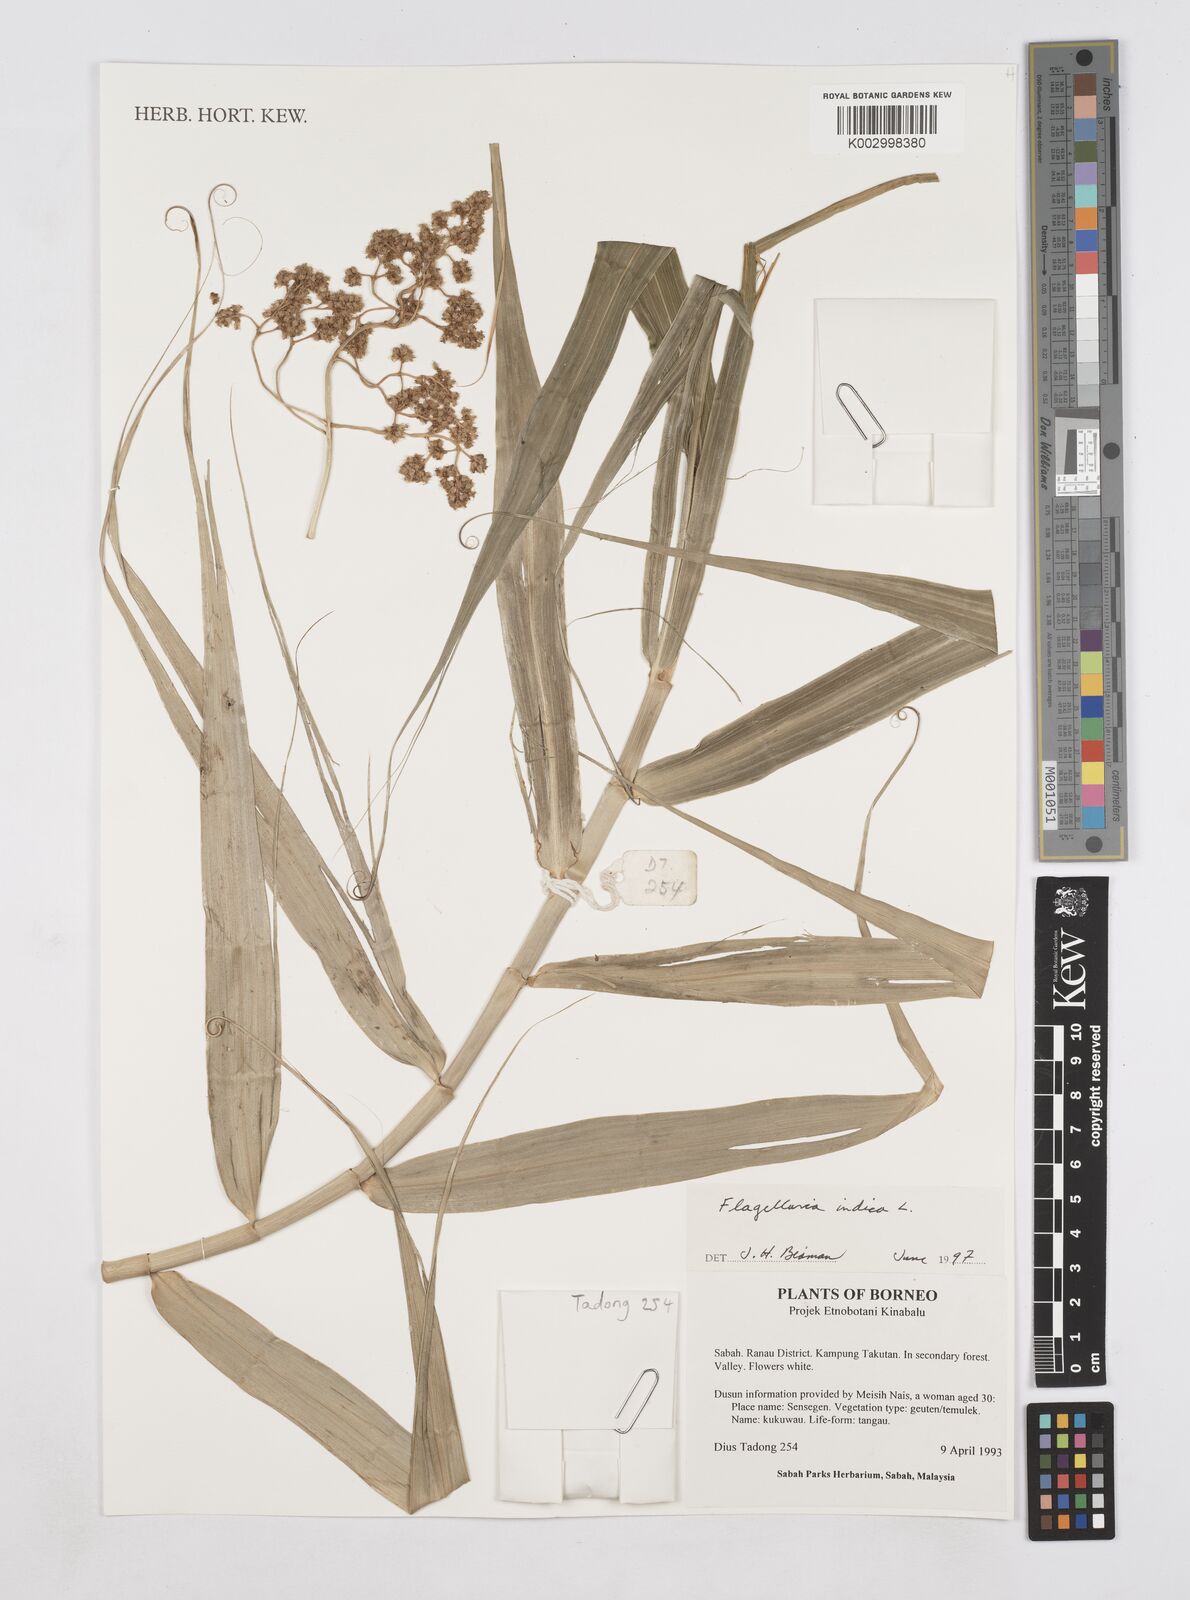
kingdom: Plantae
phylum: Tracheophyta
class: Liliopsida
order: Poales
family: Flagellariaceae
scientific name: Flagellariaceae
